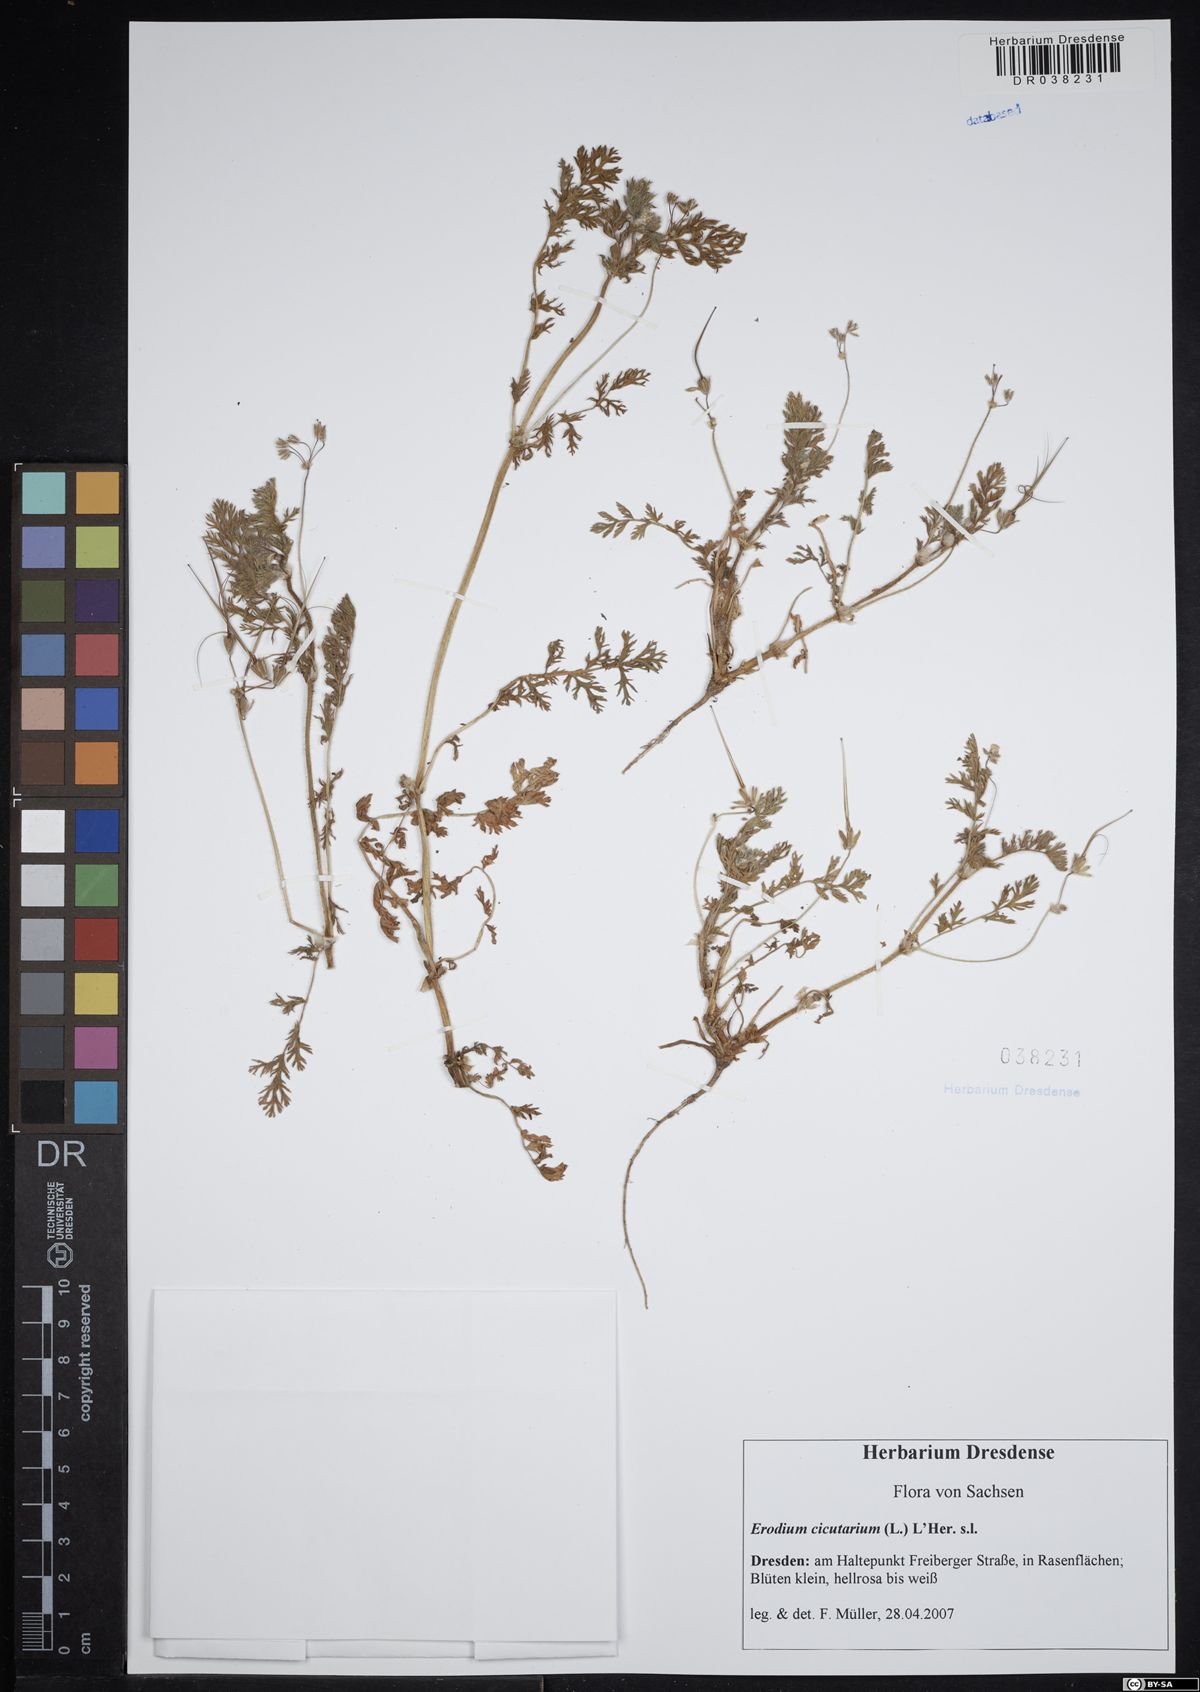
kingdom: Plantae
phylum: Tracheophyta
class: Magnoliopsida
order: Geraniales
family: Geraniaceae
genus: Erodium
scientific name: Erodium cicutarium
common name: Common stork's-bill
